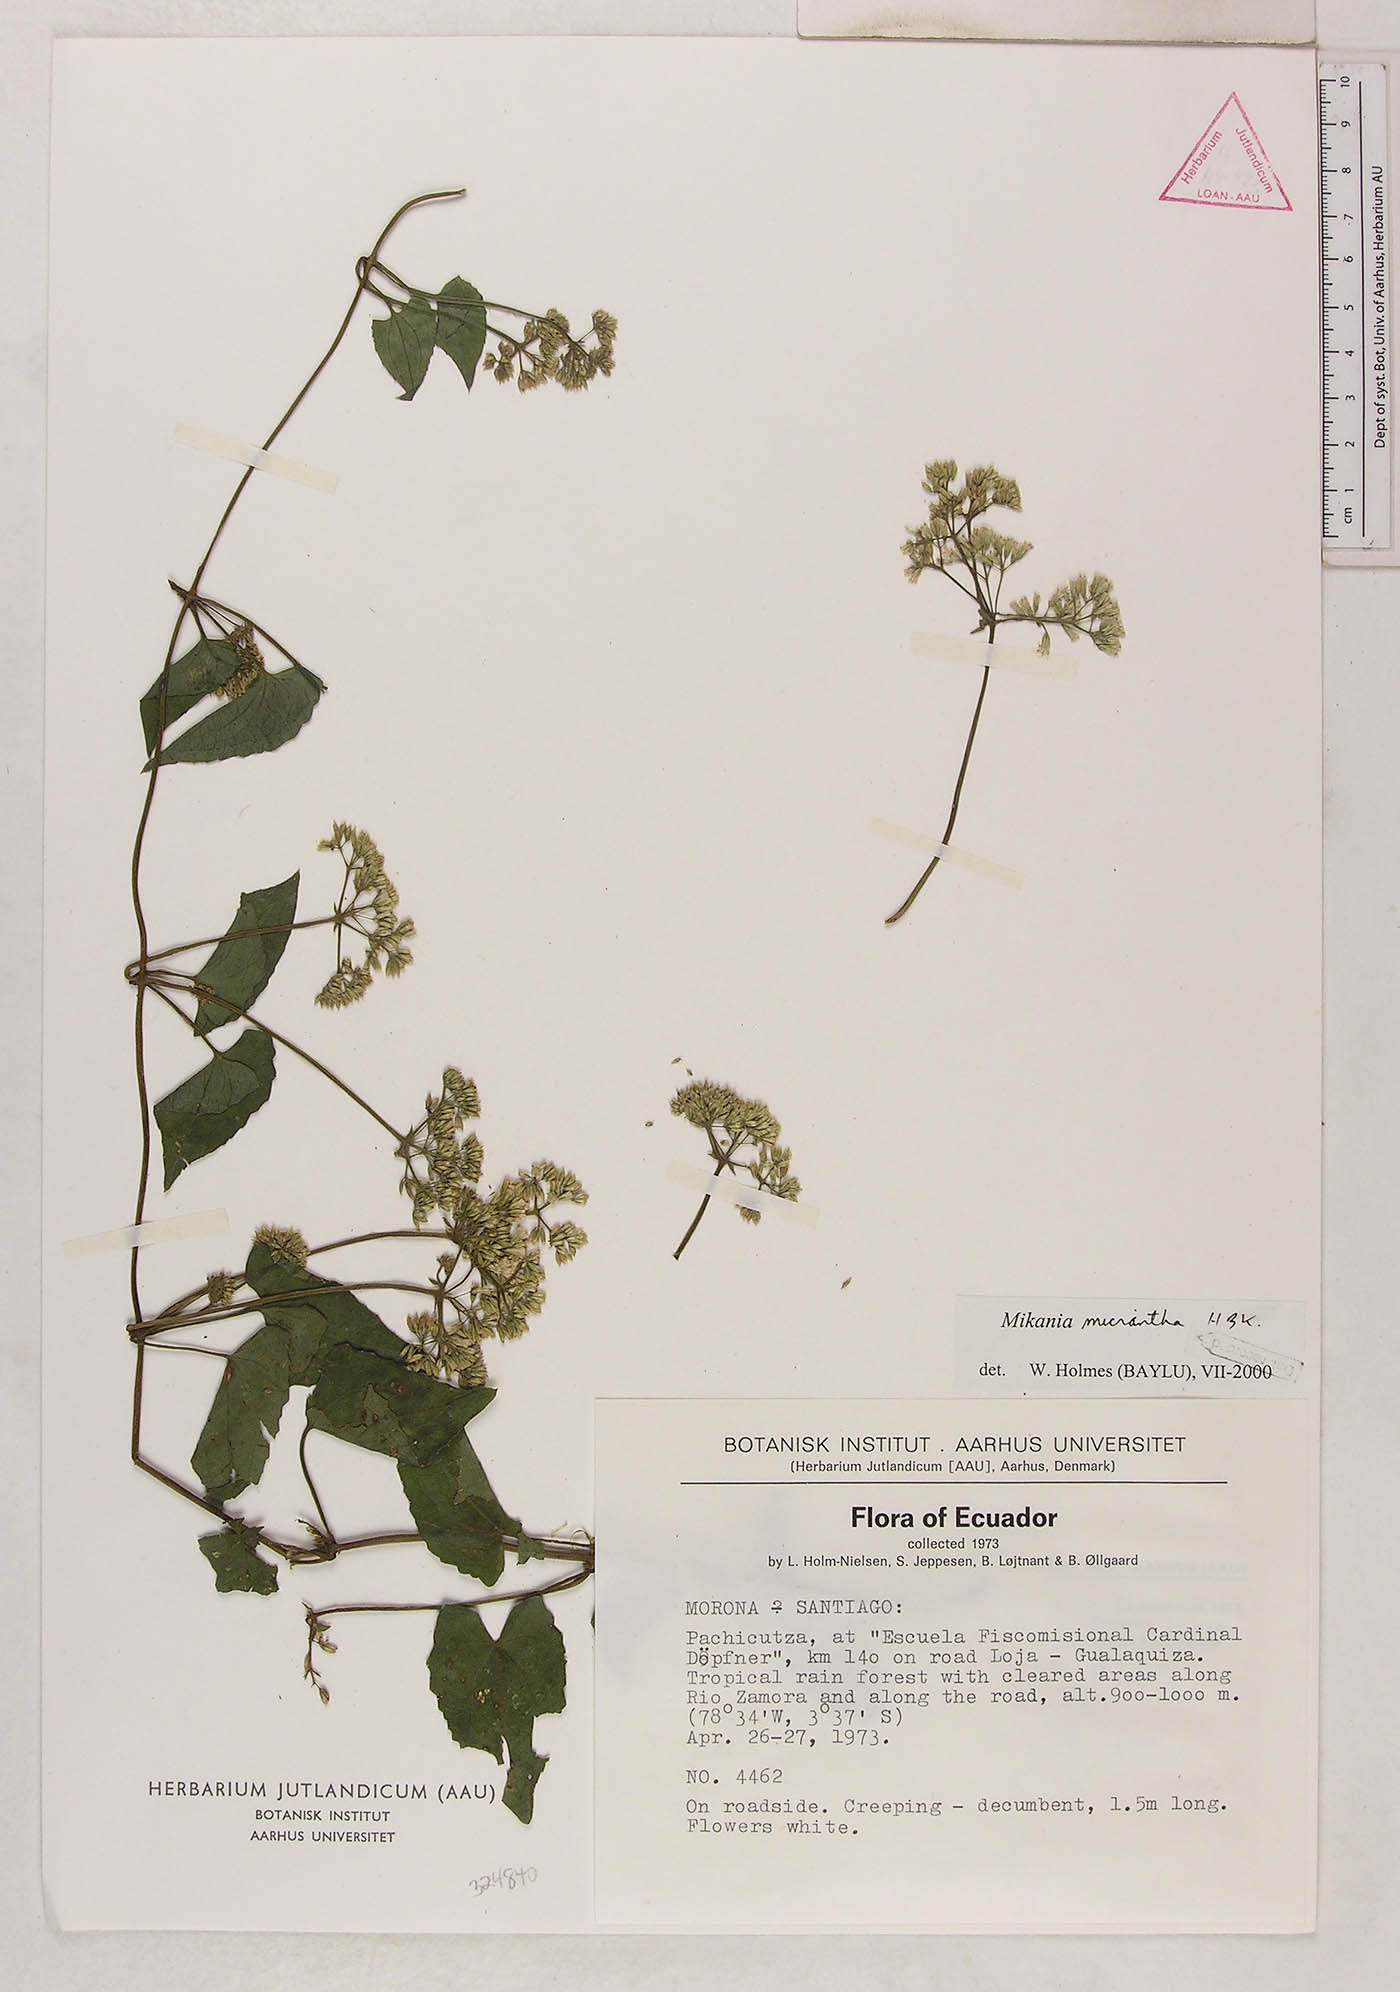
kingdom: Plantae
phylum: Tracheophyta
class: Magnoliopsida
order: Asterales
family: Asteraceae
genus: Mikania
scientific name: Mikania micrantha
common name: Mile-a-minute
